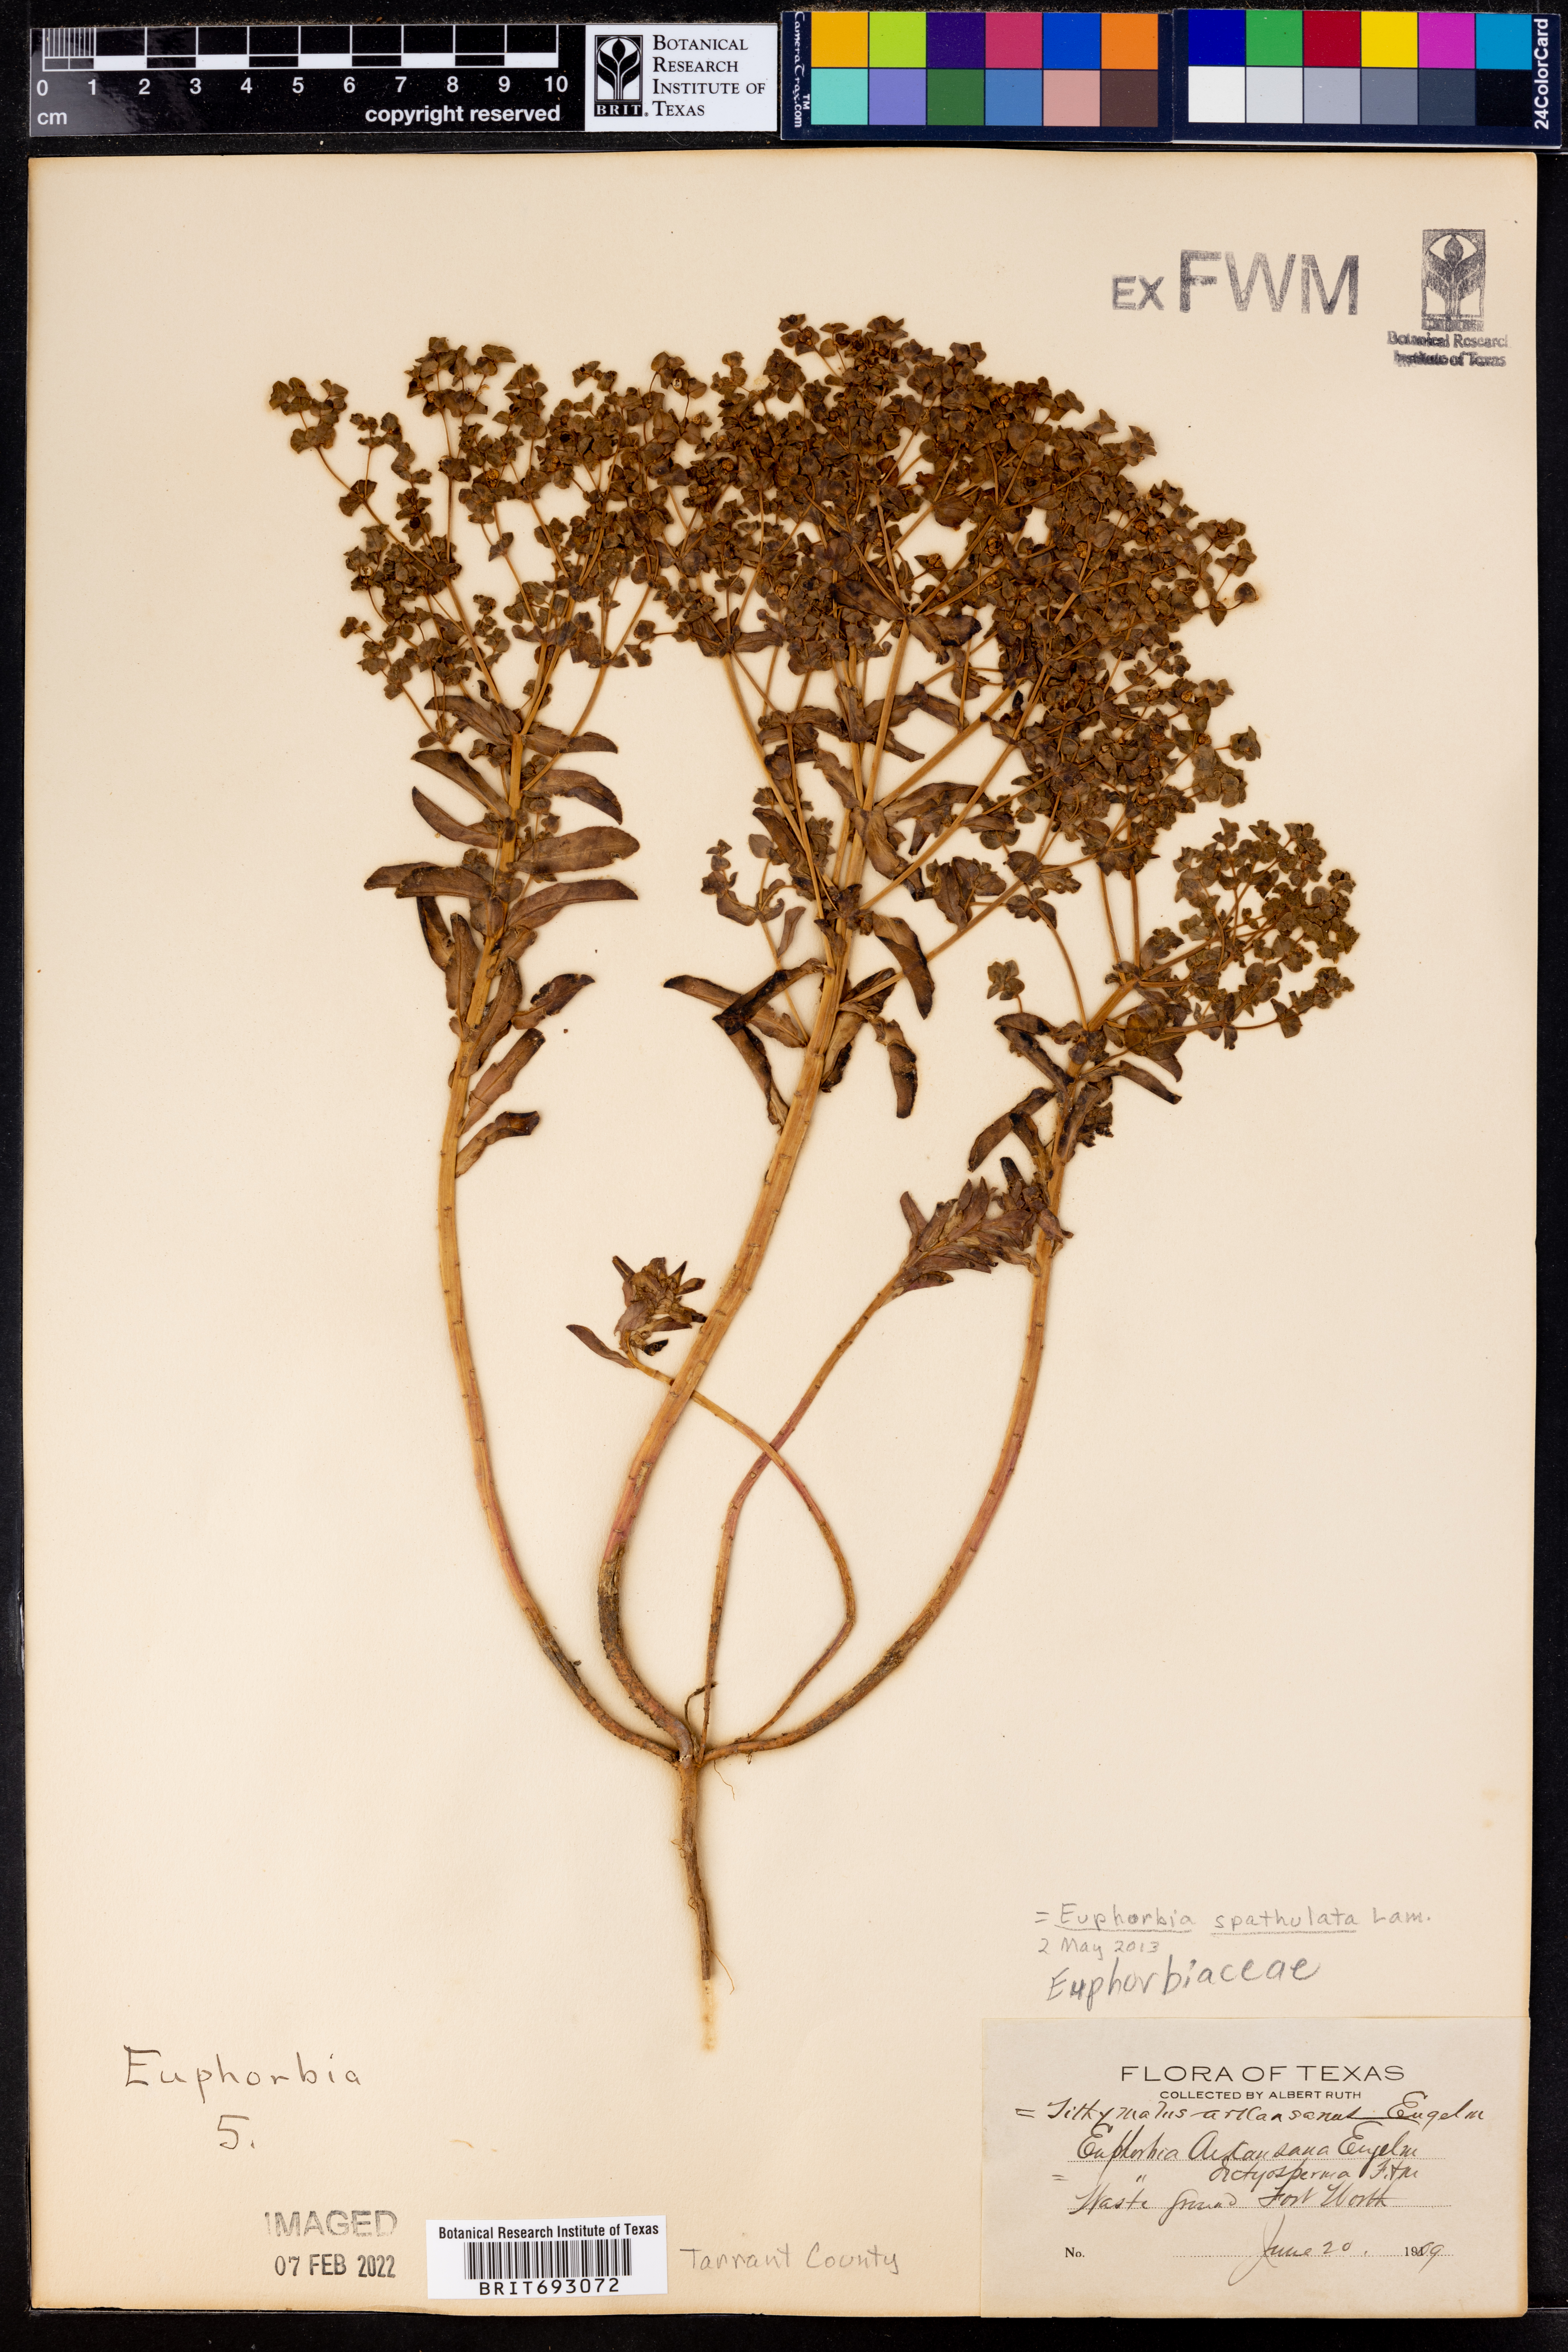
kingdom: Plantae
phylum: Tracheophyta
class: Magnoliopsida
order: Malpighiales
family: Euphorbiaceae
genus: Euphorbia
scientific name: Euphorbia spathulata
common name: Blunt spurge
